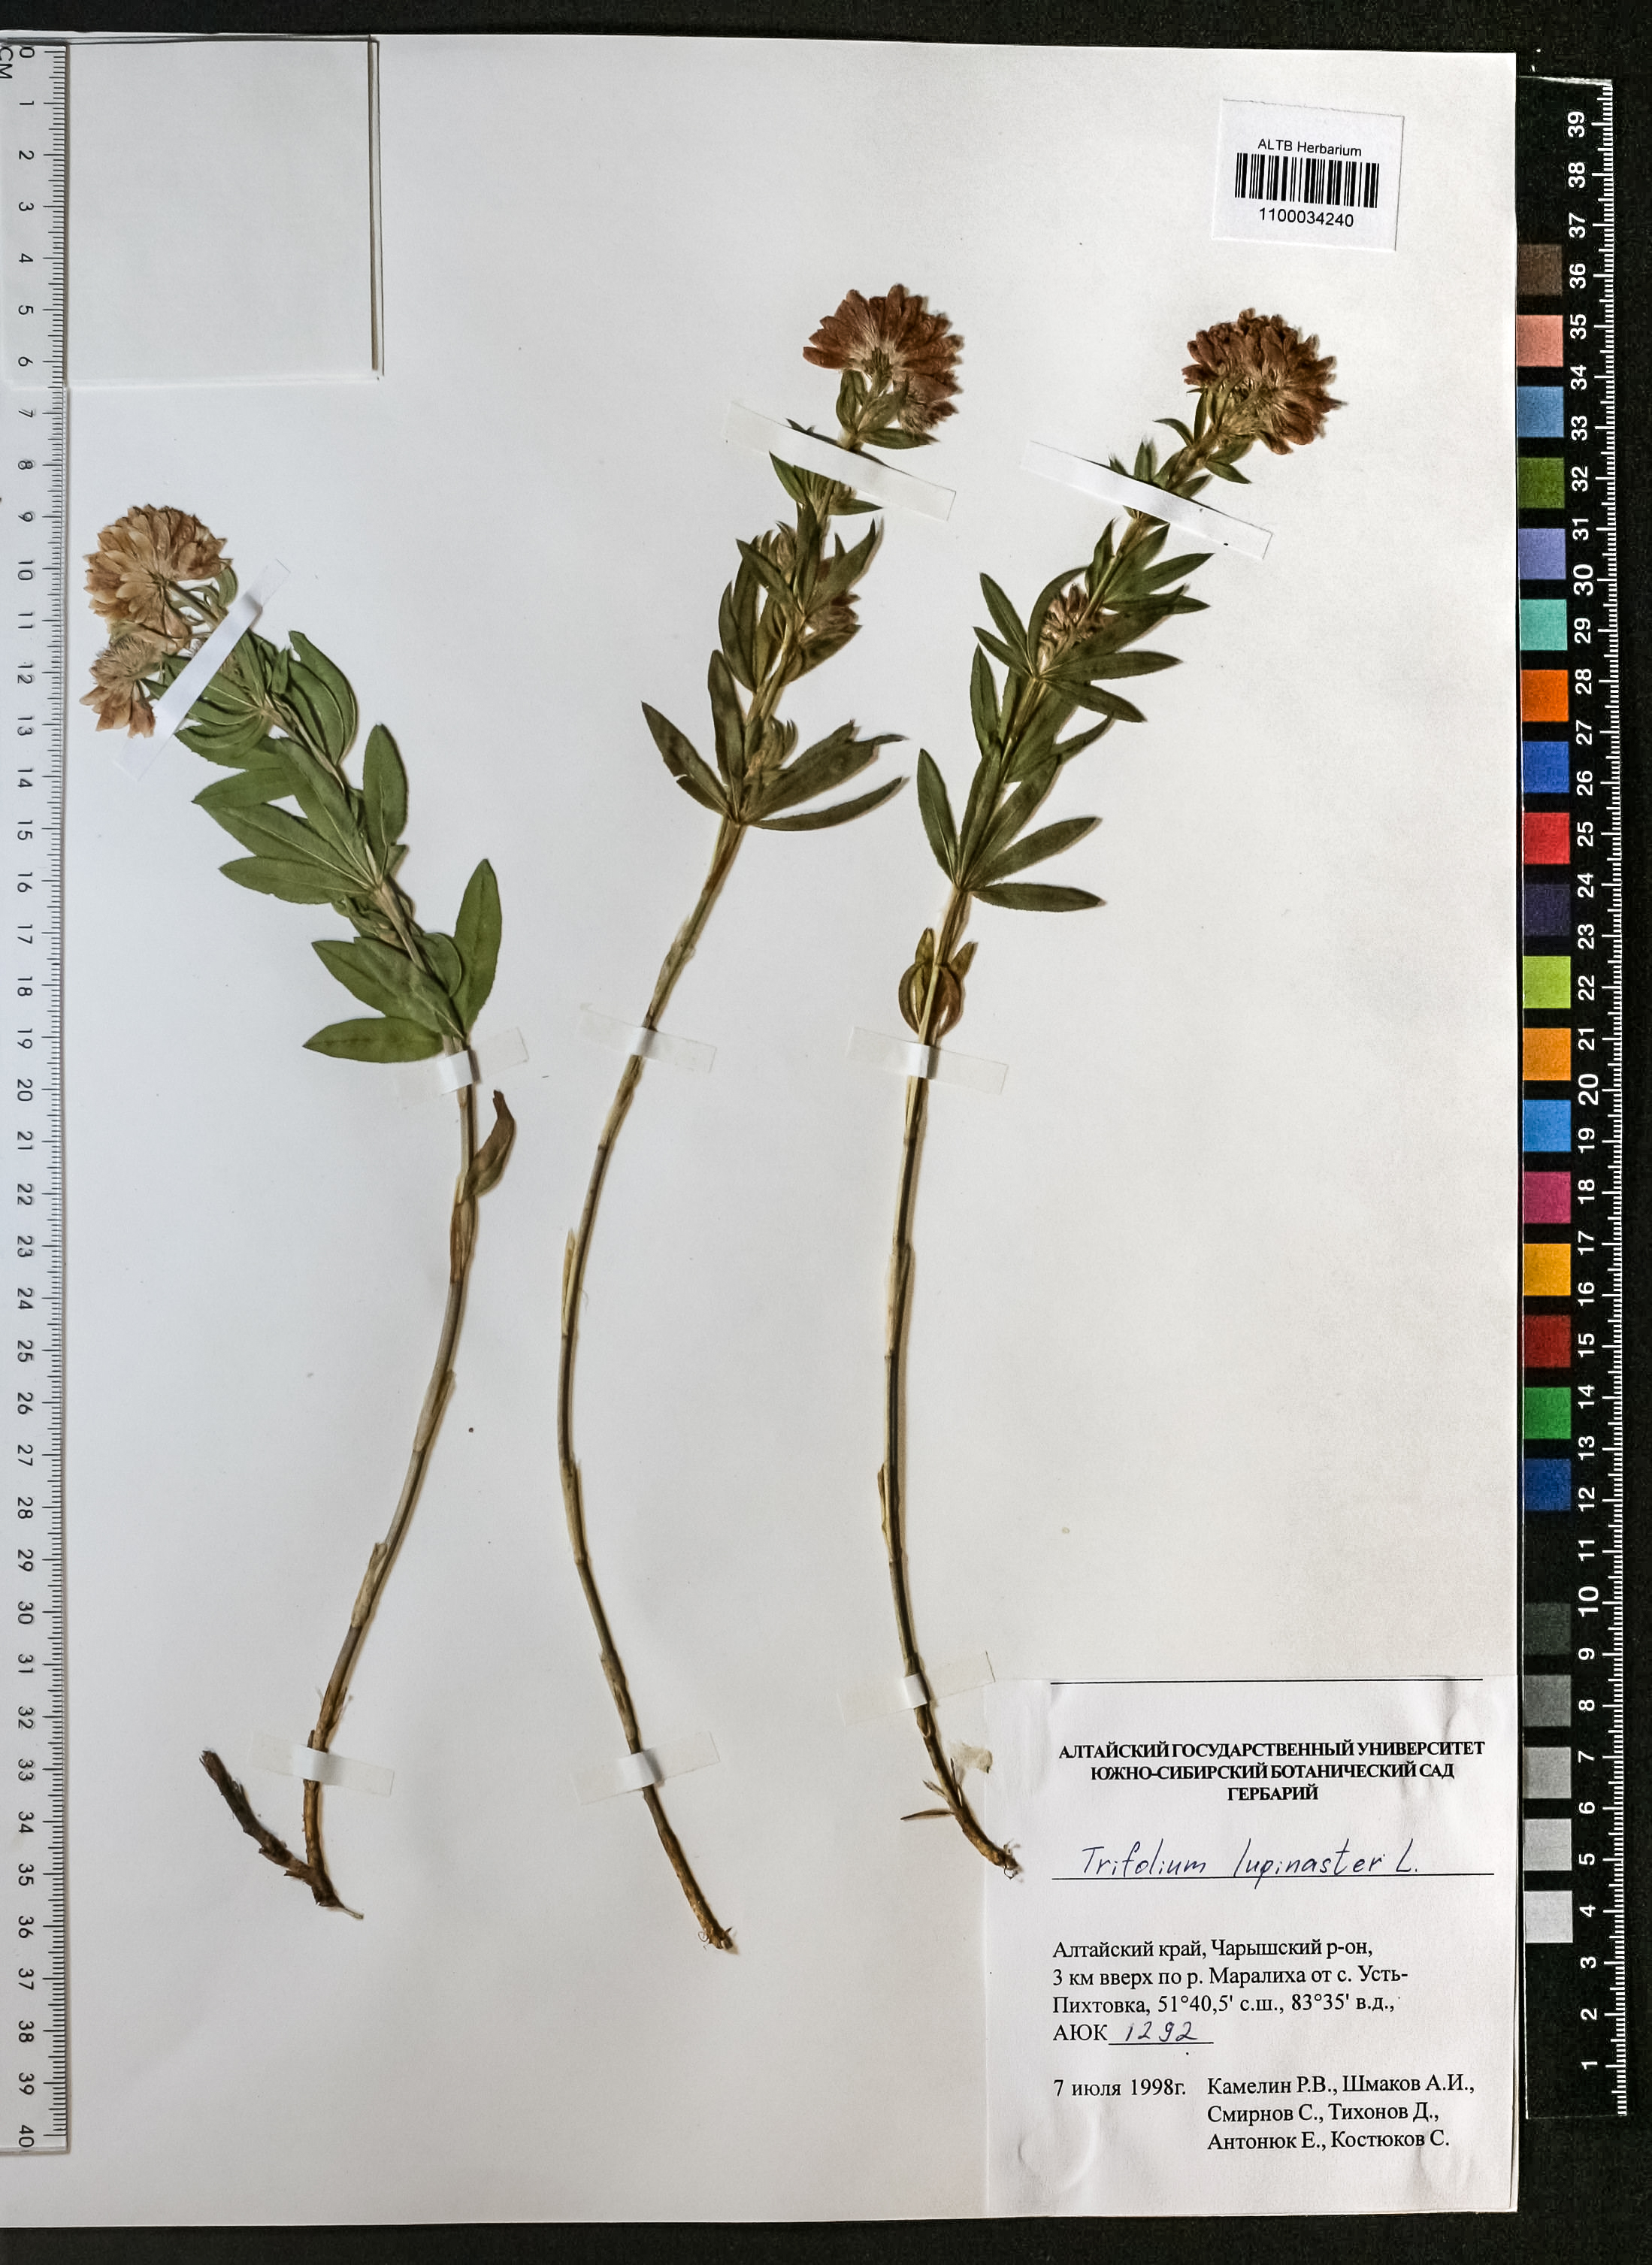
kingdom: Plantae
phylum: Tracheophyta
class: Magnoliopsida
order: Fabales
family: Fabaceae
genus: Trifolium
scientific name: Trifolium lupinaster
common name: Lupine clover
